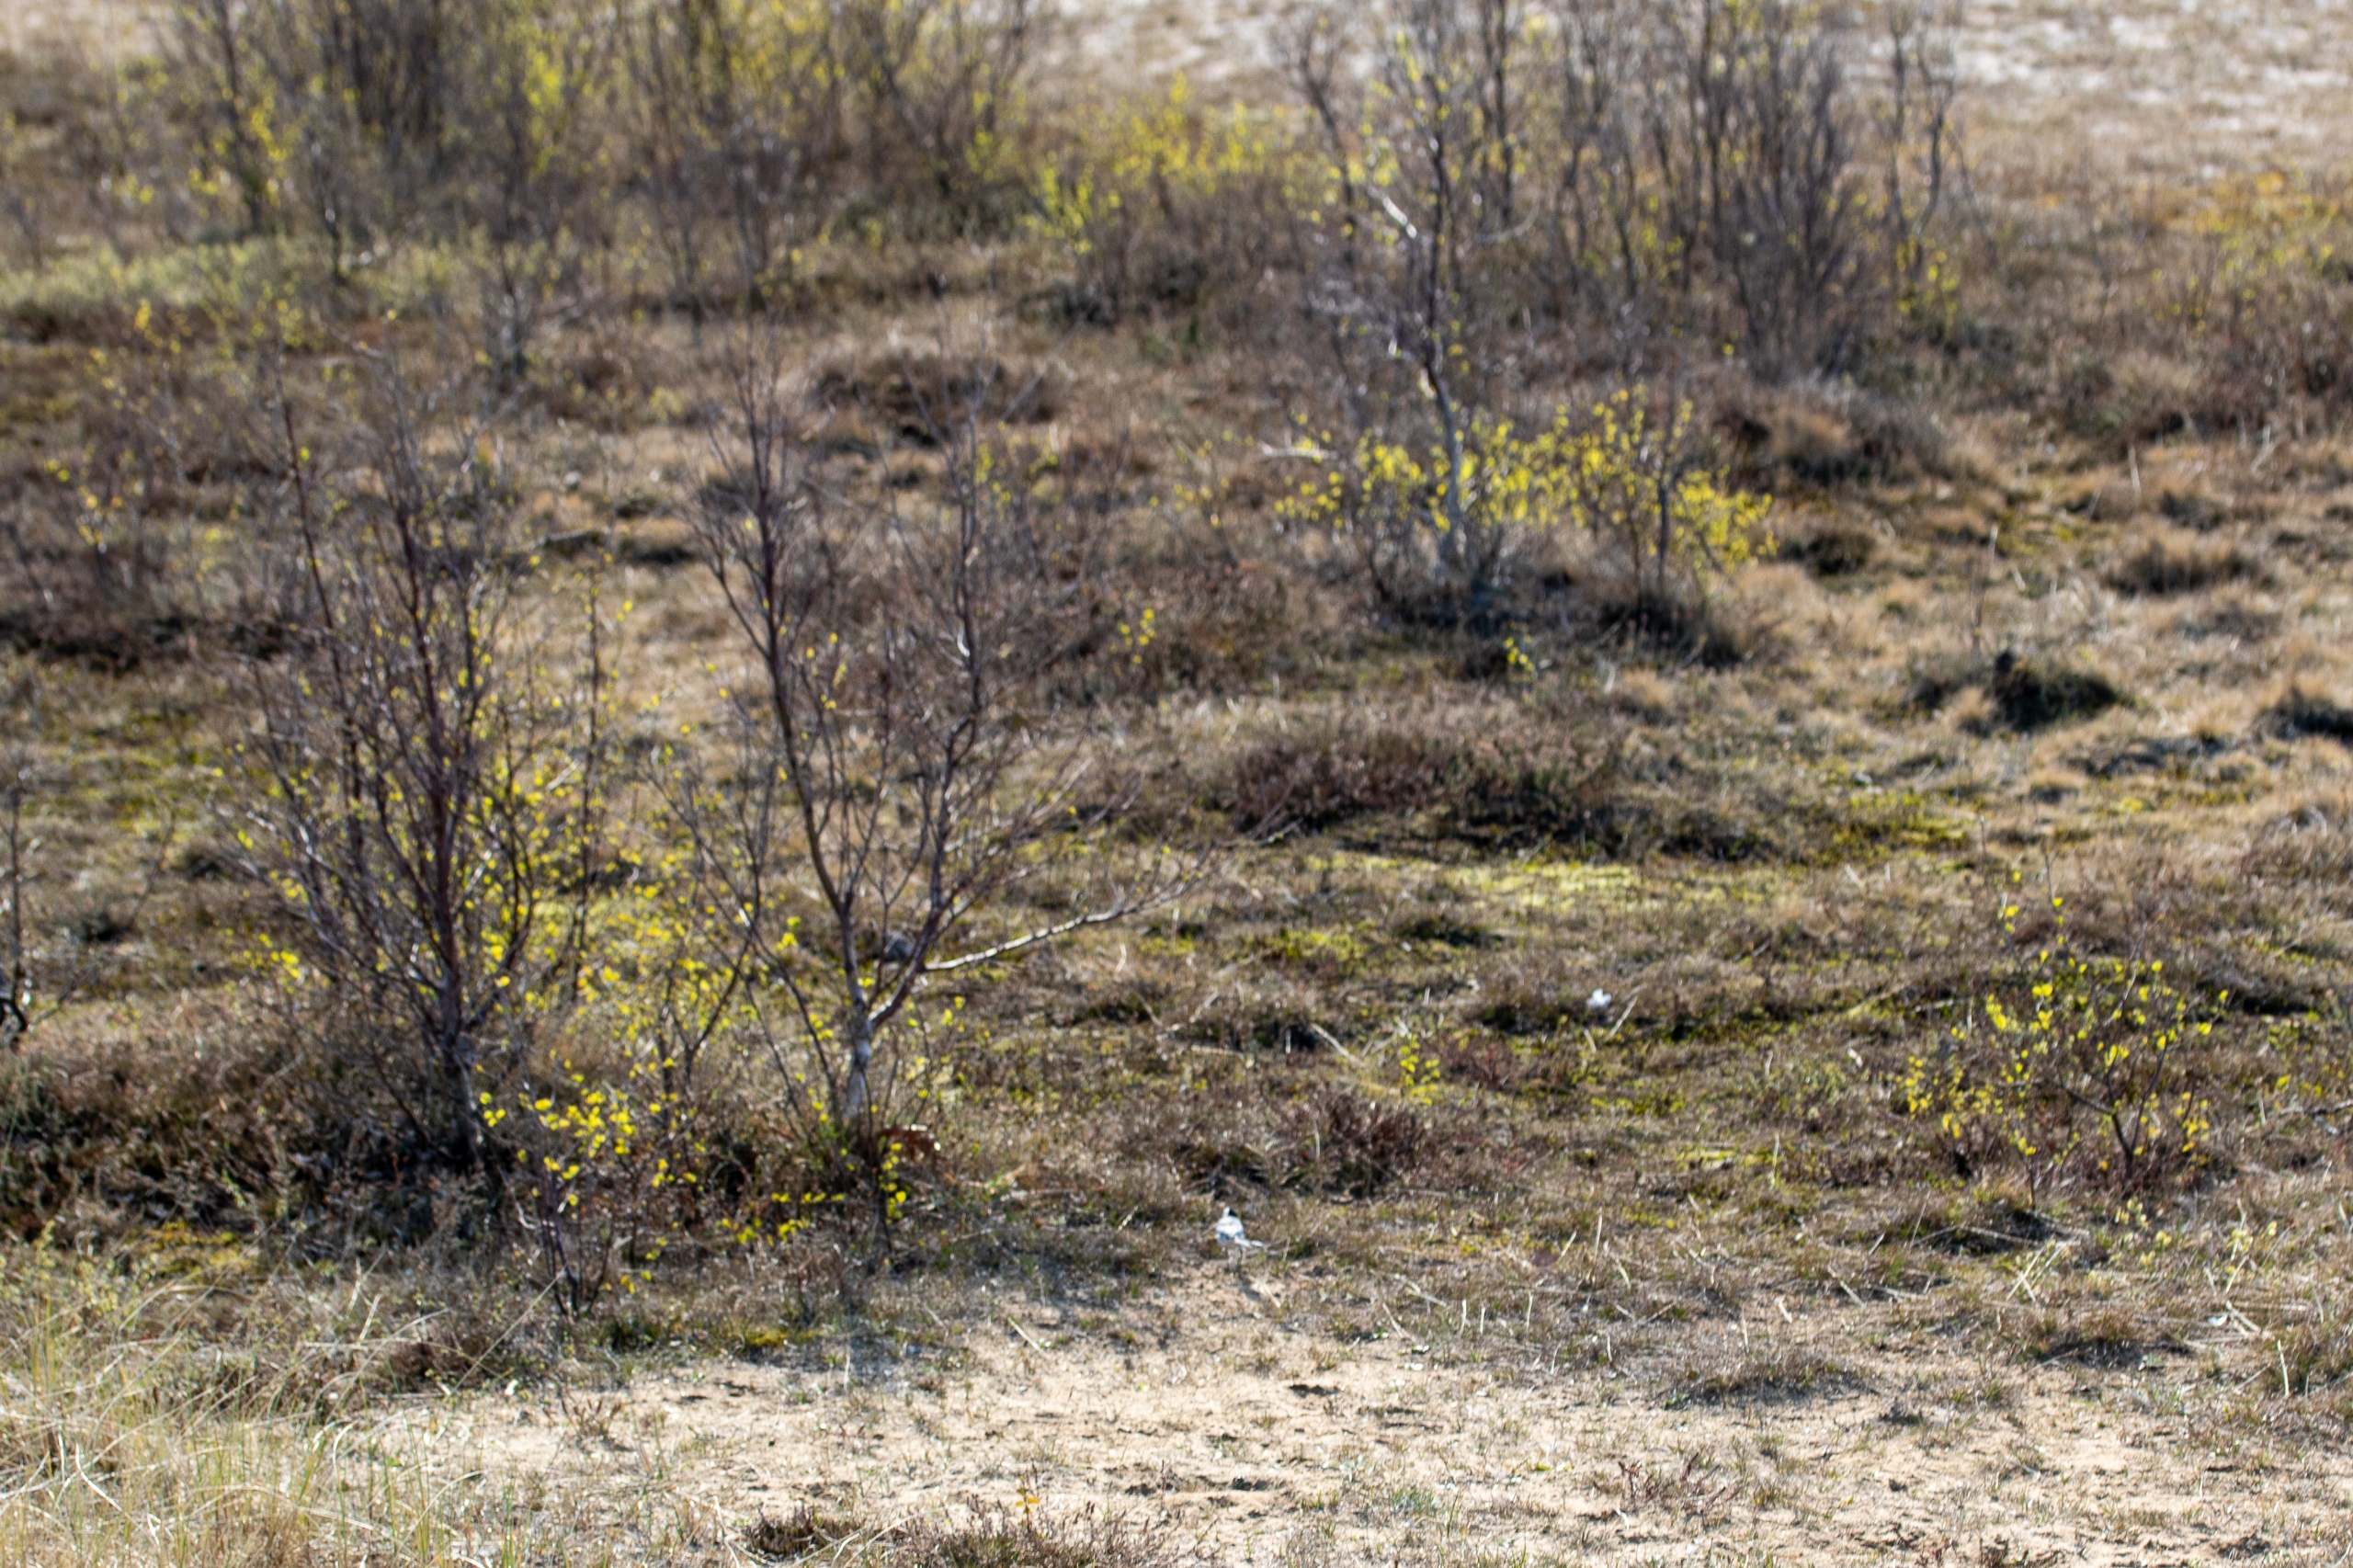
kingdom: Plantae
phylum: Tracheophyta
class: Magnoliopsida
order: Fagales
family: Betulaceae
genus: Betula
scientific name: Betula pendula
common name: Vorte-birk
